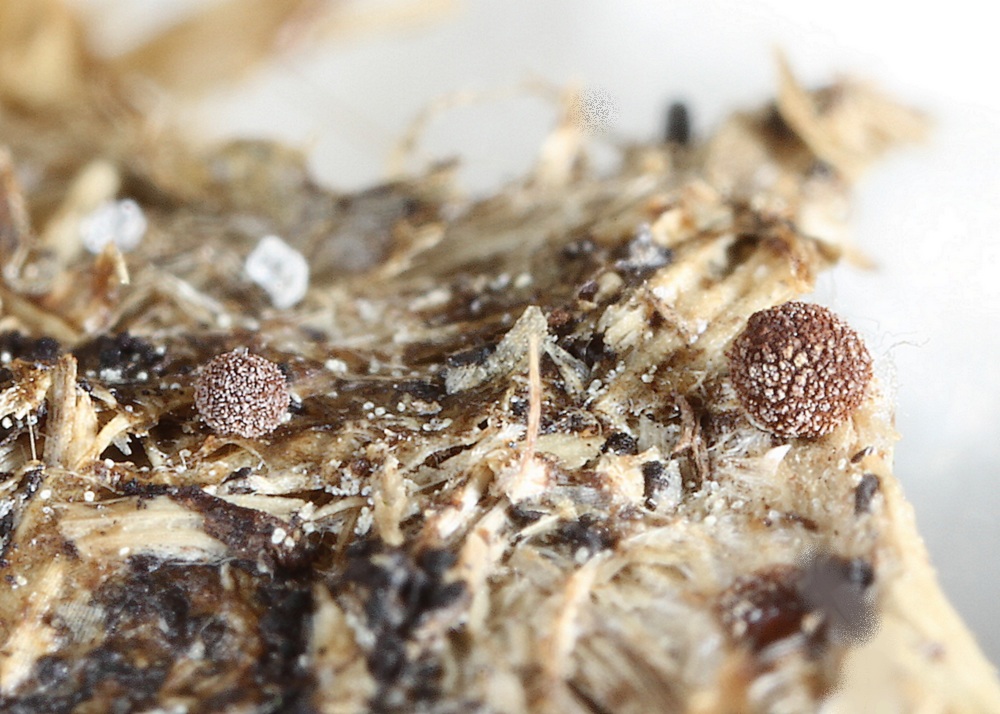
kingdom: Fungi
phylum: Basidiomycota
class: Agaricomycetes
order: Agaricales
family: Psathyrellaceae
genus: Coprinellus
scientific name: Coprinellus curtus
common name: rustprikket blækhat
